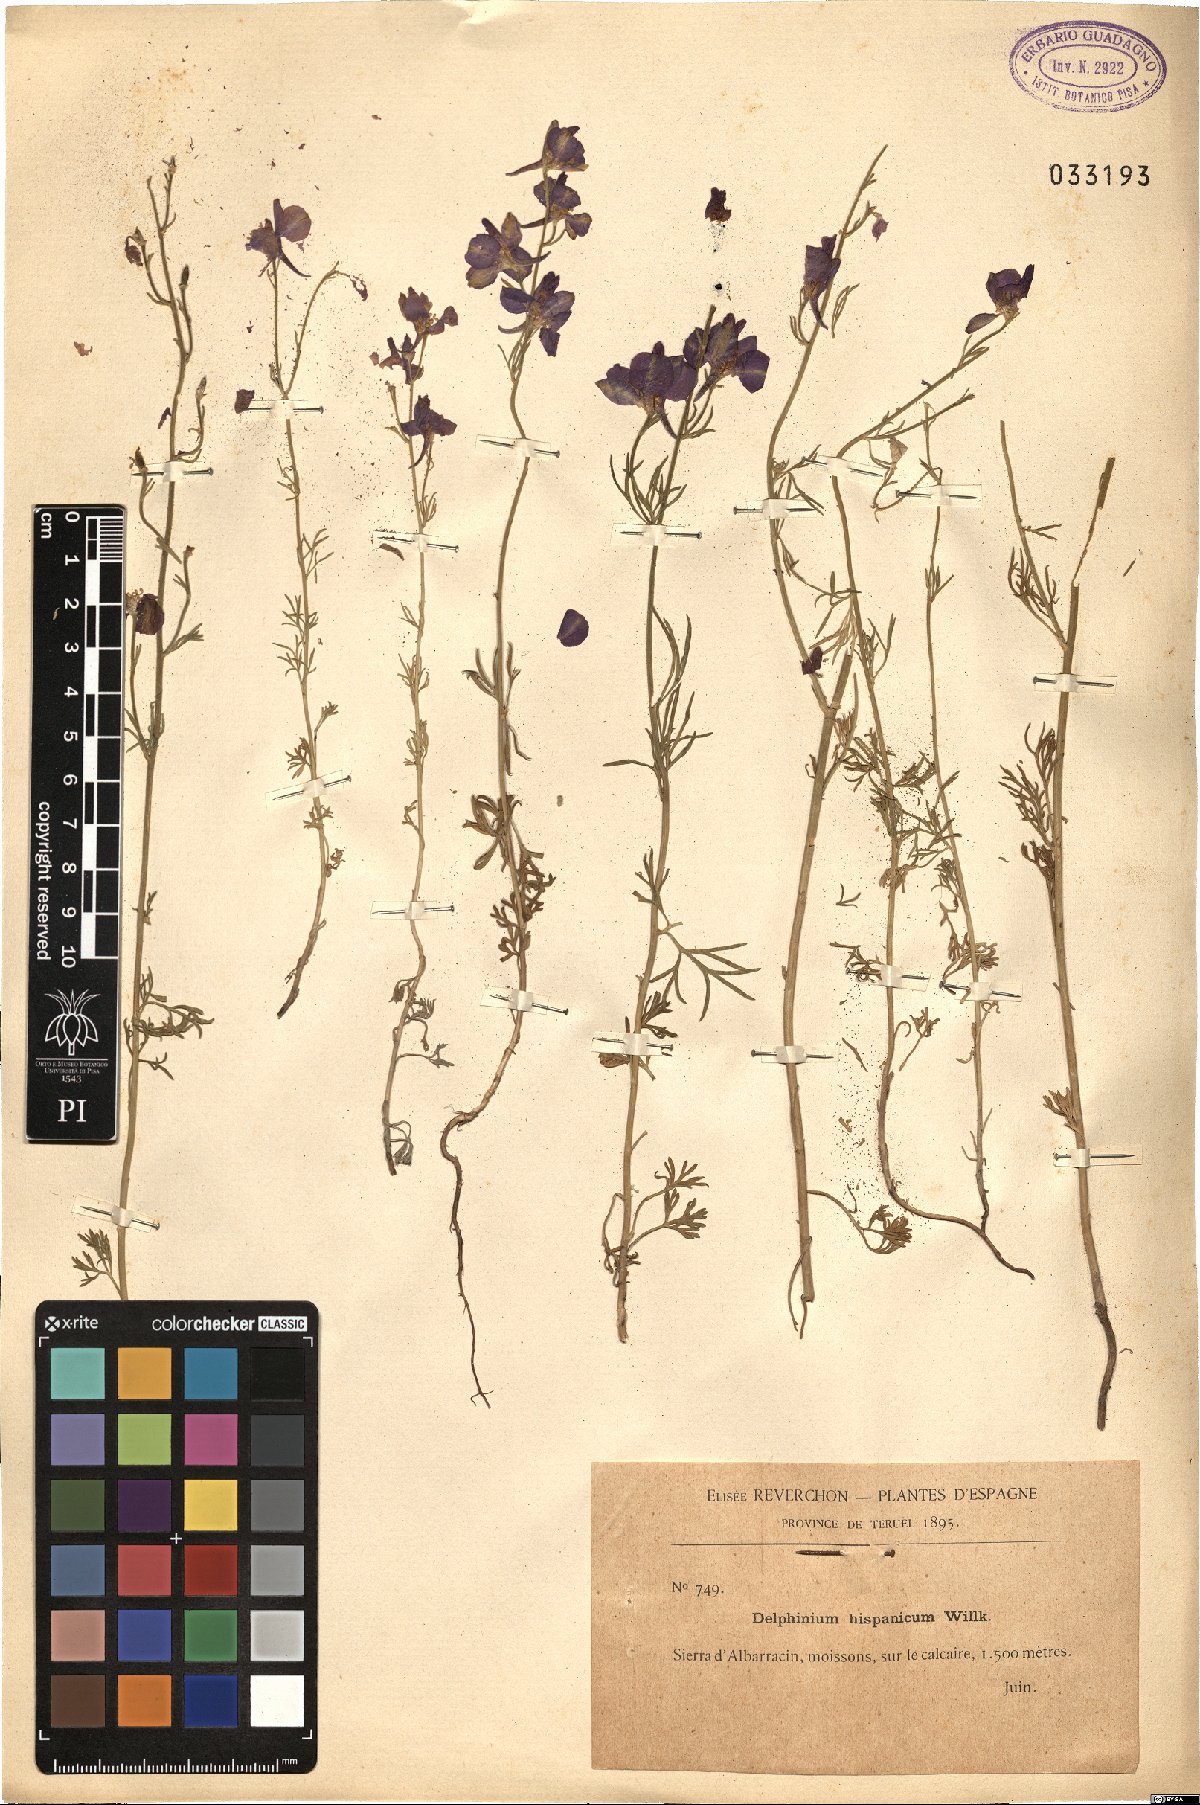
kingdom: Plantae
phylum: Tracheophyta
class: Magnoliopsida
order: Ranunculales
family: Ranunculaceae
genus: Delphinium
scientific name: Delphinium hispanicum
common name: Oriental knight's-spur
